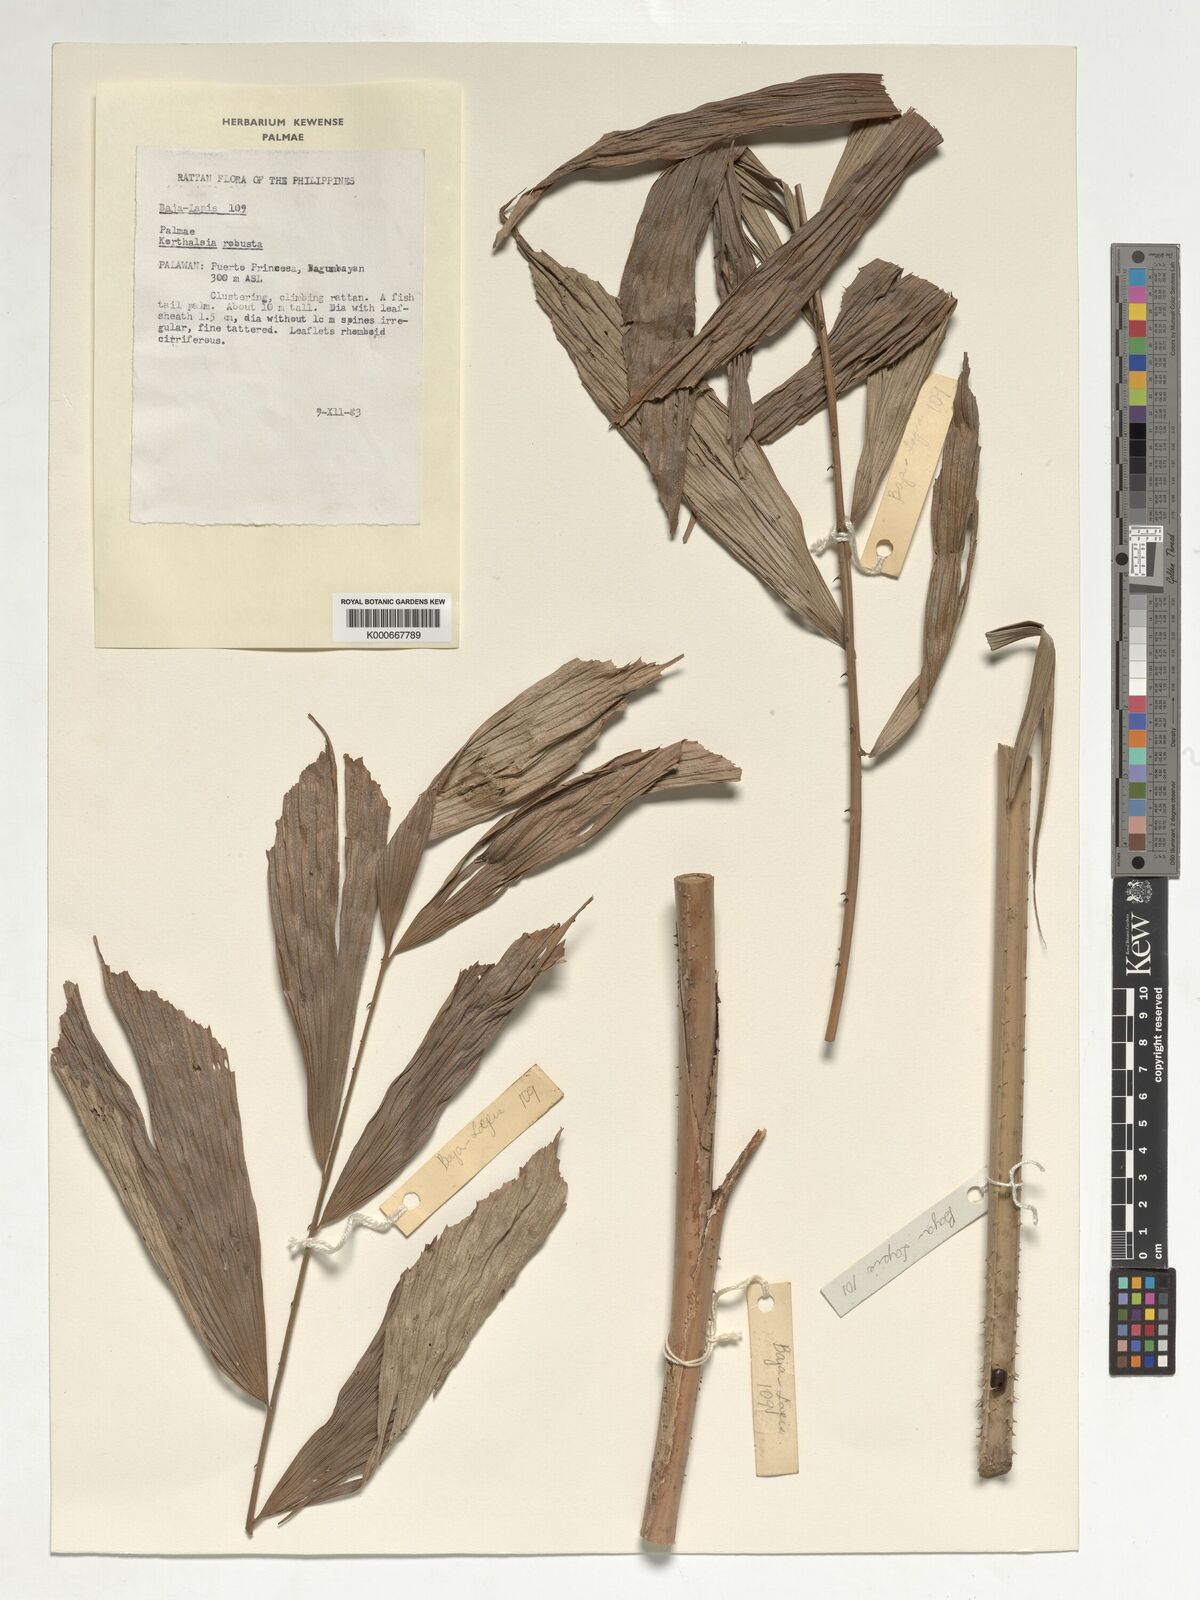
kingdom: Plantae
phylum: Tracheophyta
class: Liliopsida
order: Arecales
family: Arecaceae
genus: Korthalsia
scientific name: Korthalsia robusta
